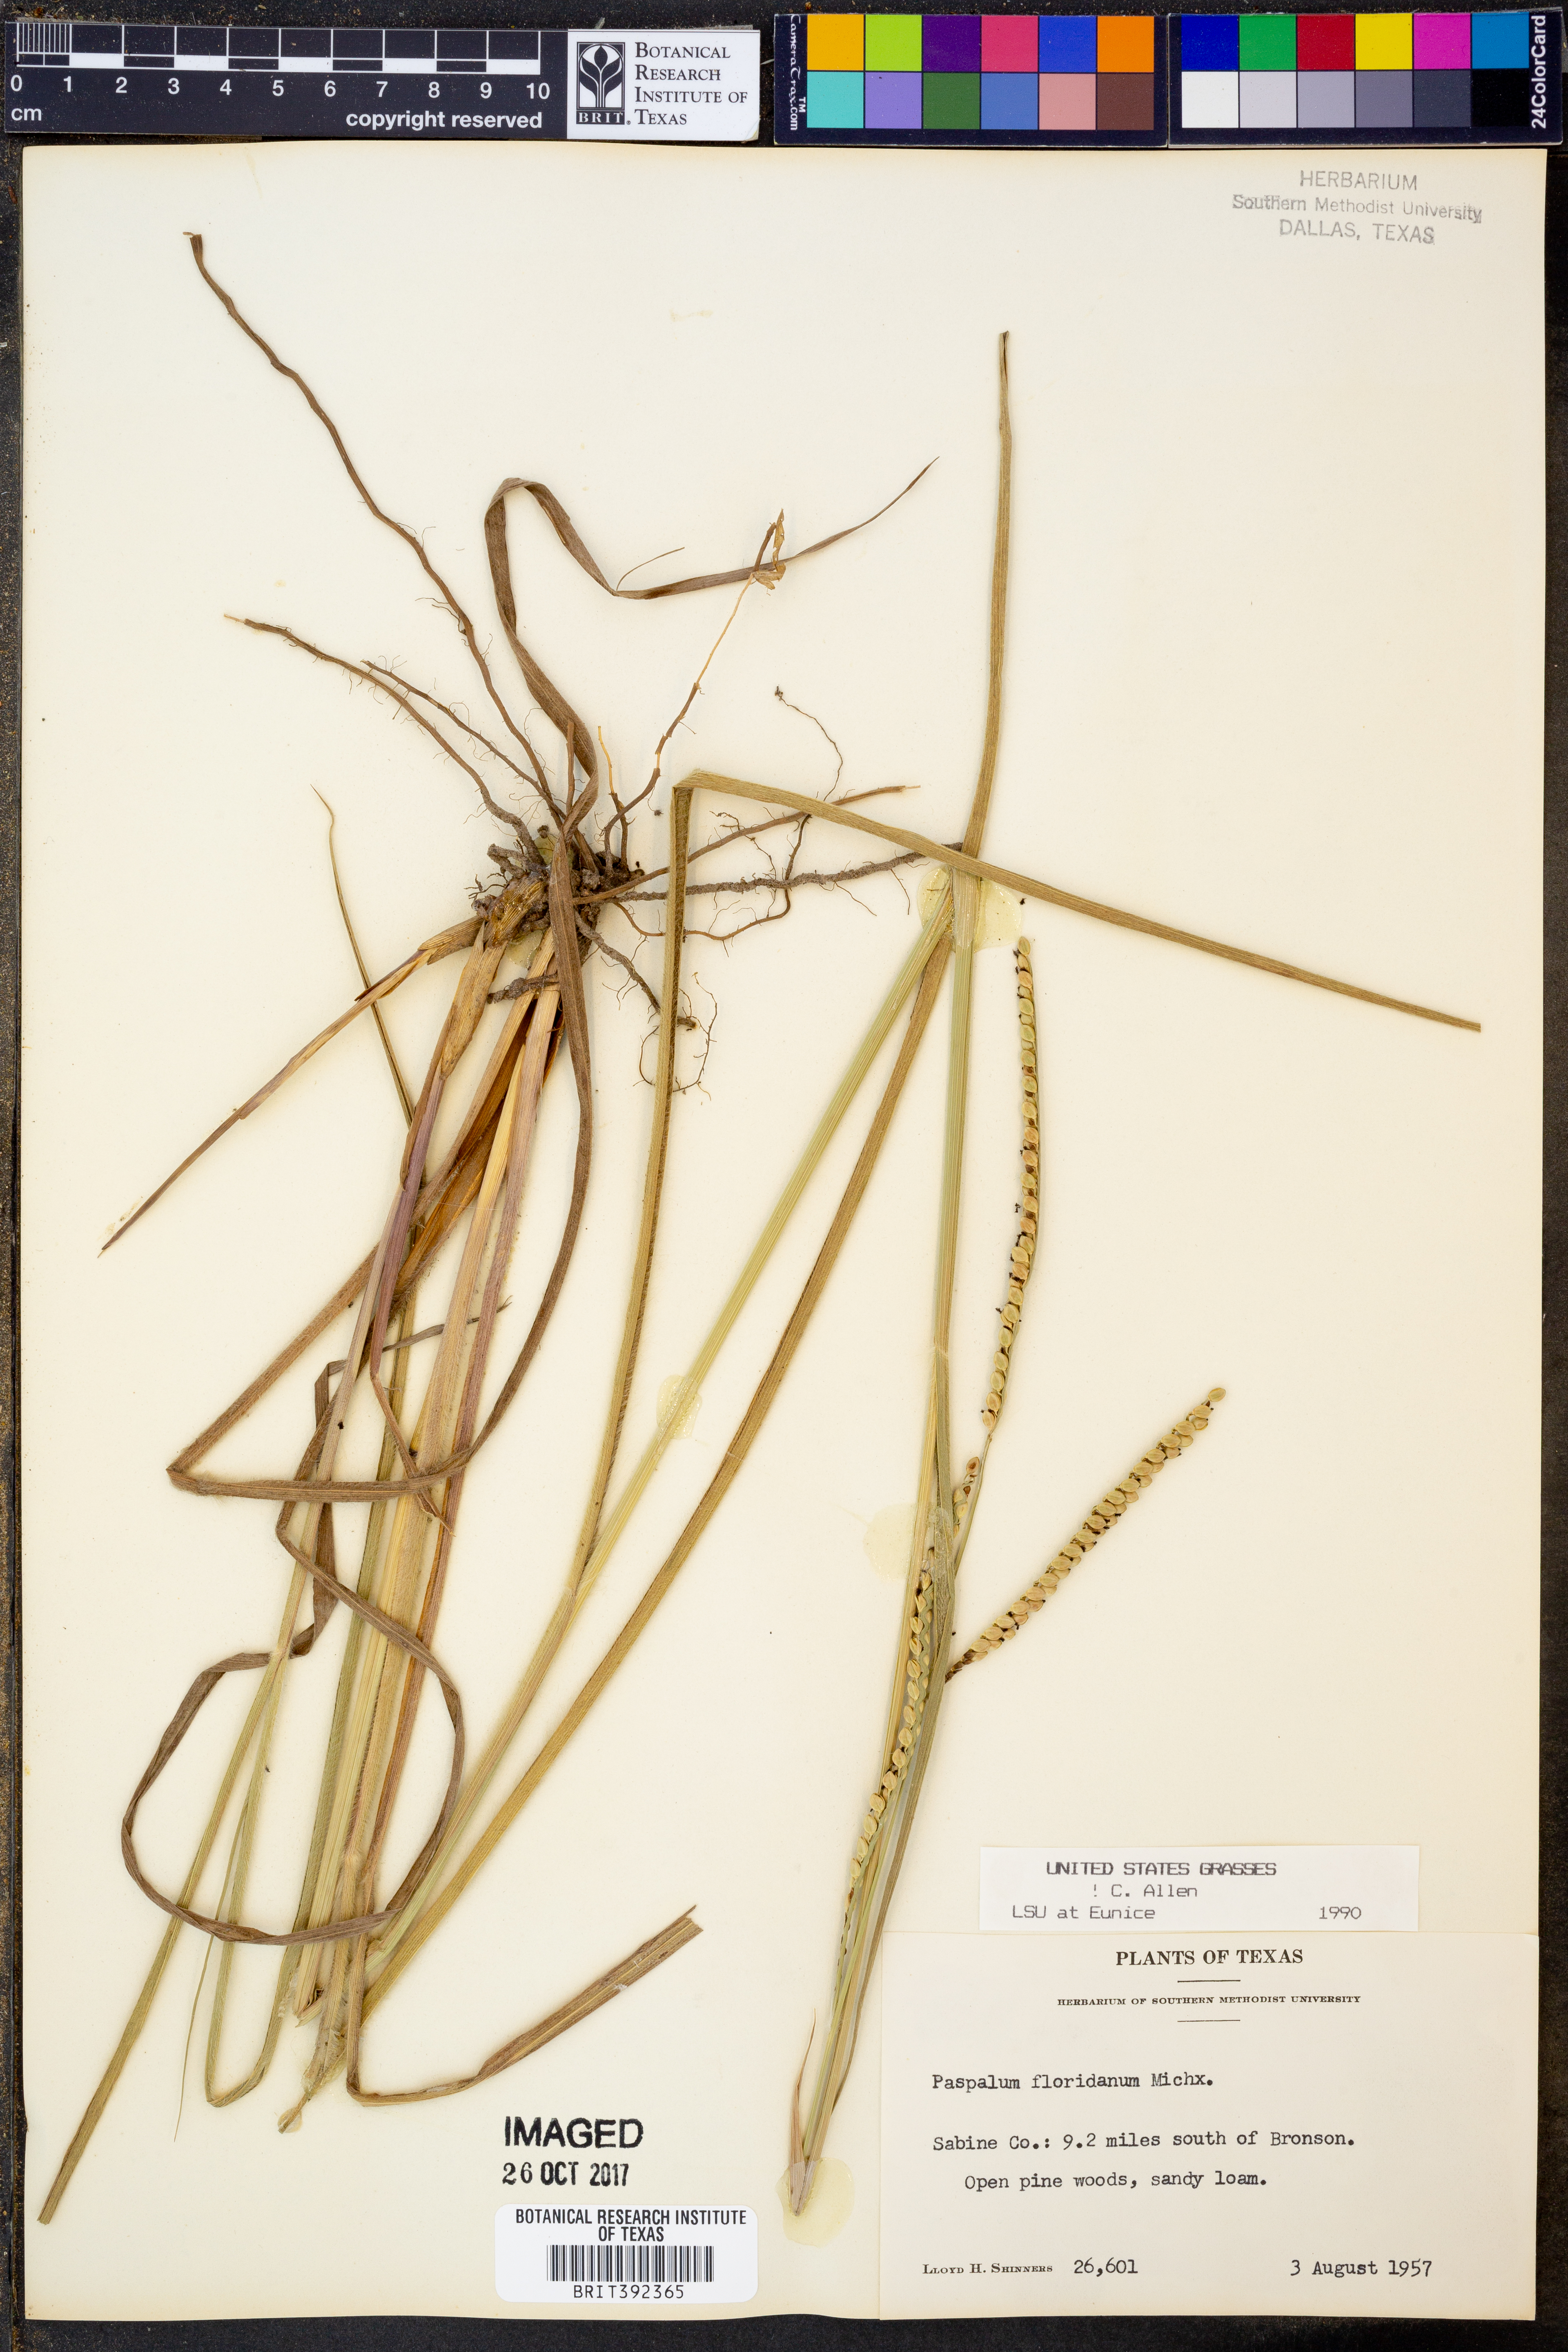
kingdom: Plantae
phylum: Tracheophyta
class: Liliopsida
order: Poales
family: Poaceae
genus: Paspalum
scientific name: Paspalum floridanum
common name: Florida paspalum
